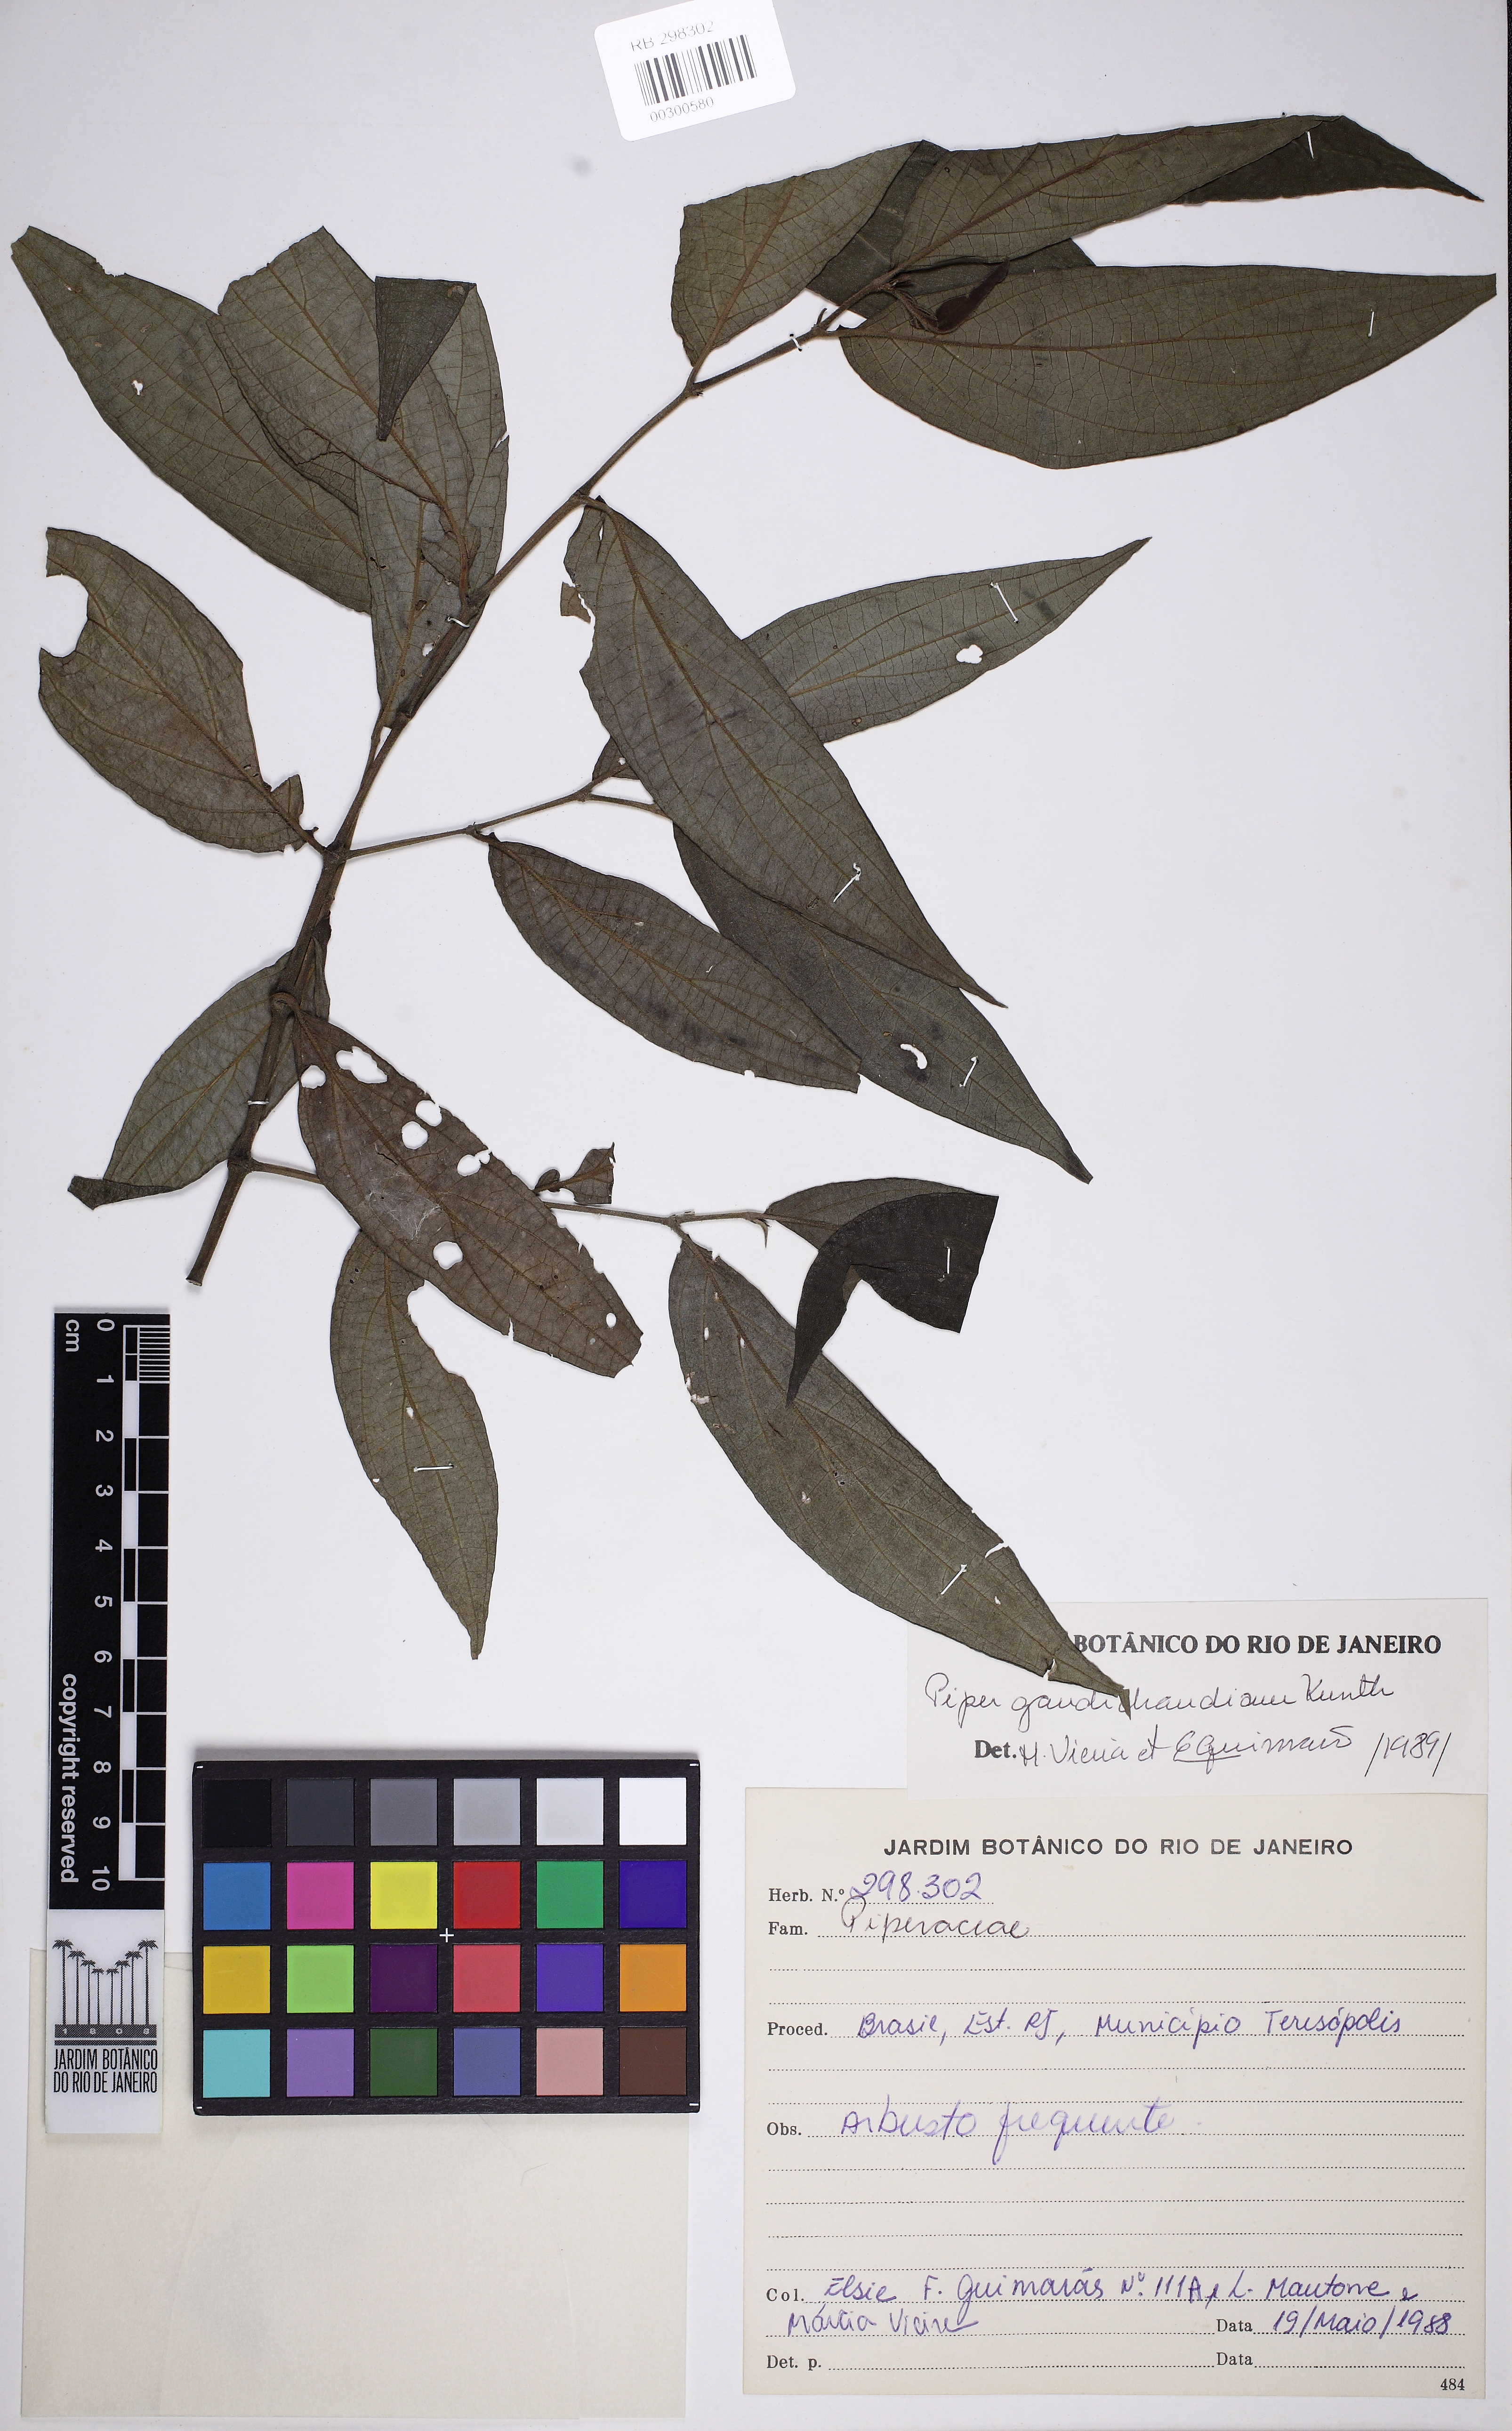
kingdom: Plantae
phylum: Tracheophyta
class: Magnoliopsida
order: Piperales
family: Piperaceae
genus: Piper
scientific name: Piper gaudichaudianum
